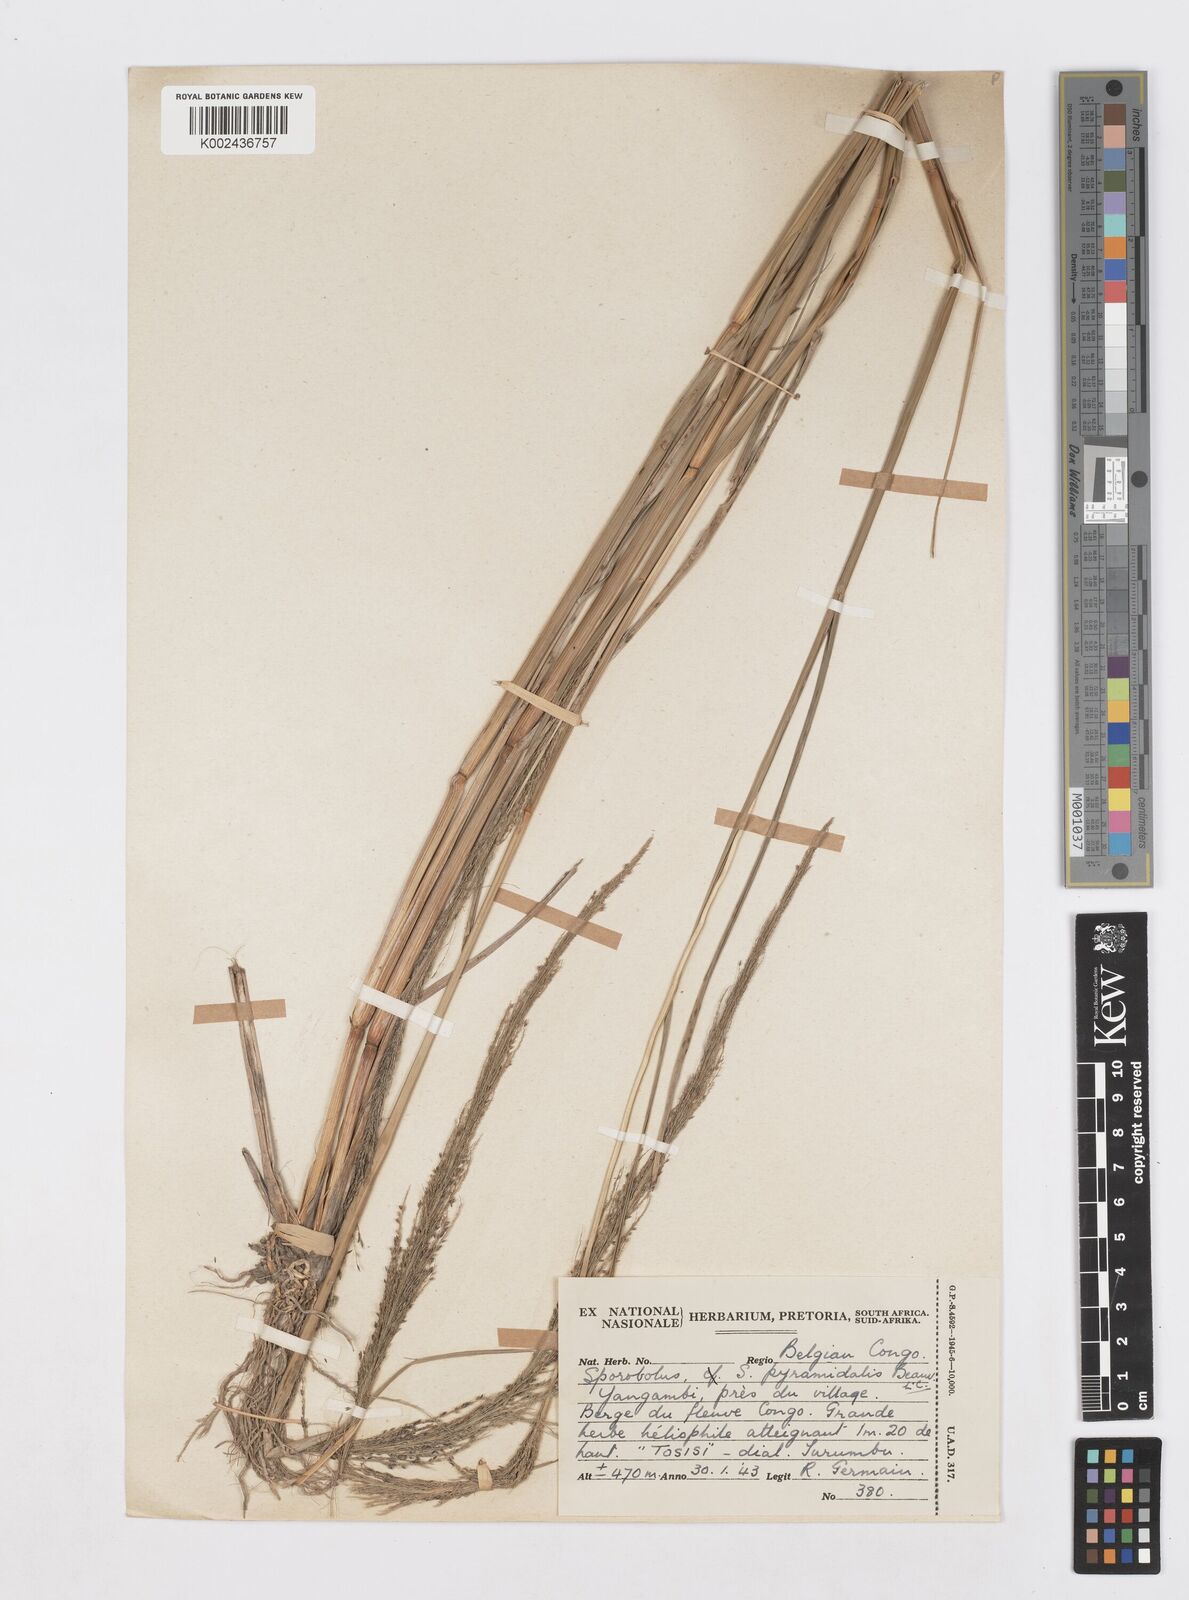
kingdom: Plantae
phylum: Tracheophyta
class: Liliopsida
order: Poales
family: Poaceae
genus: Sporobolus
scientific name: Sporobolus pyramidalis
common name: West indian dropseed
